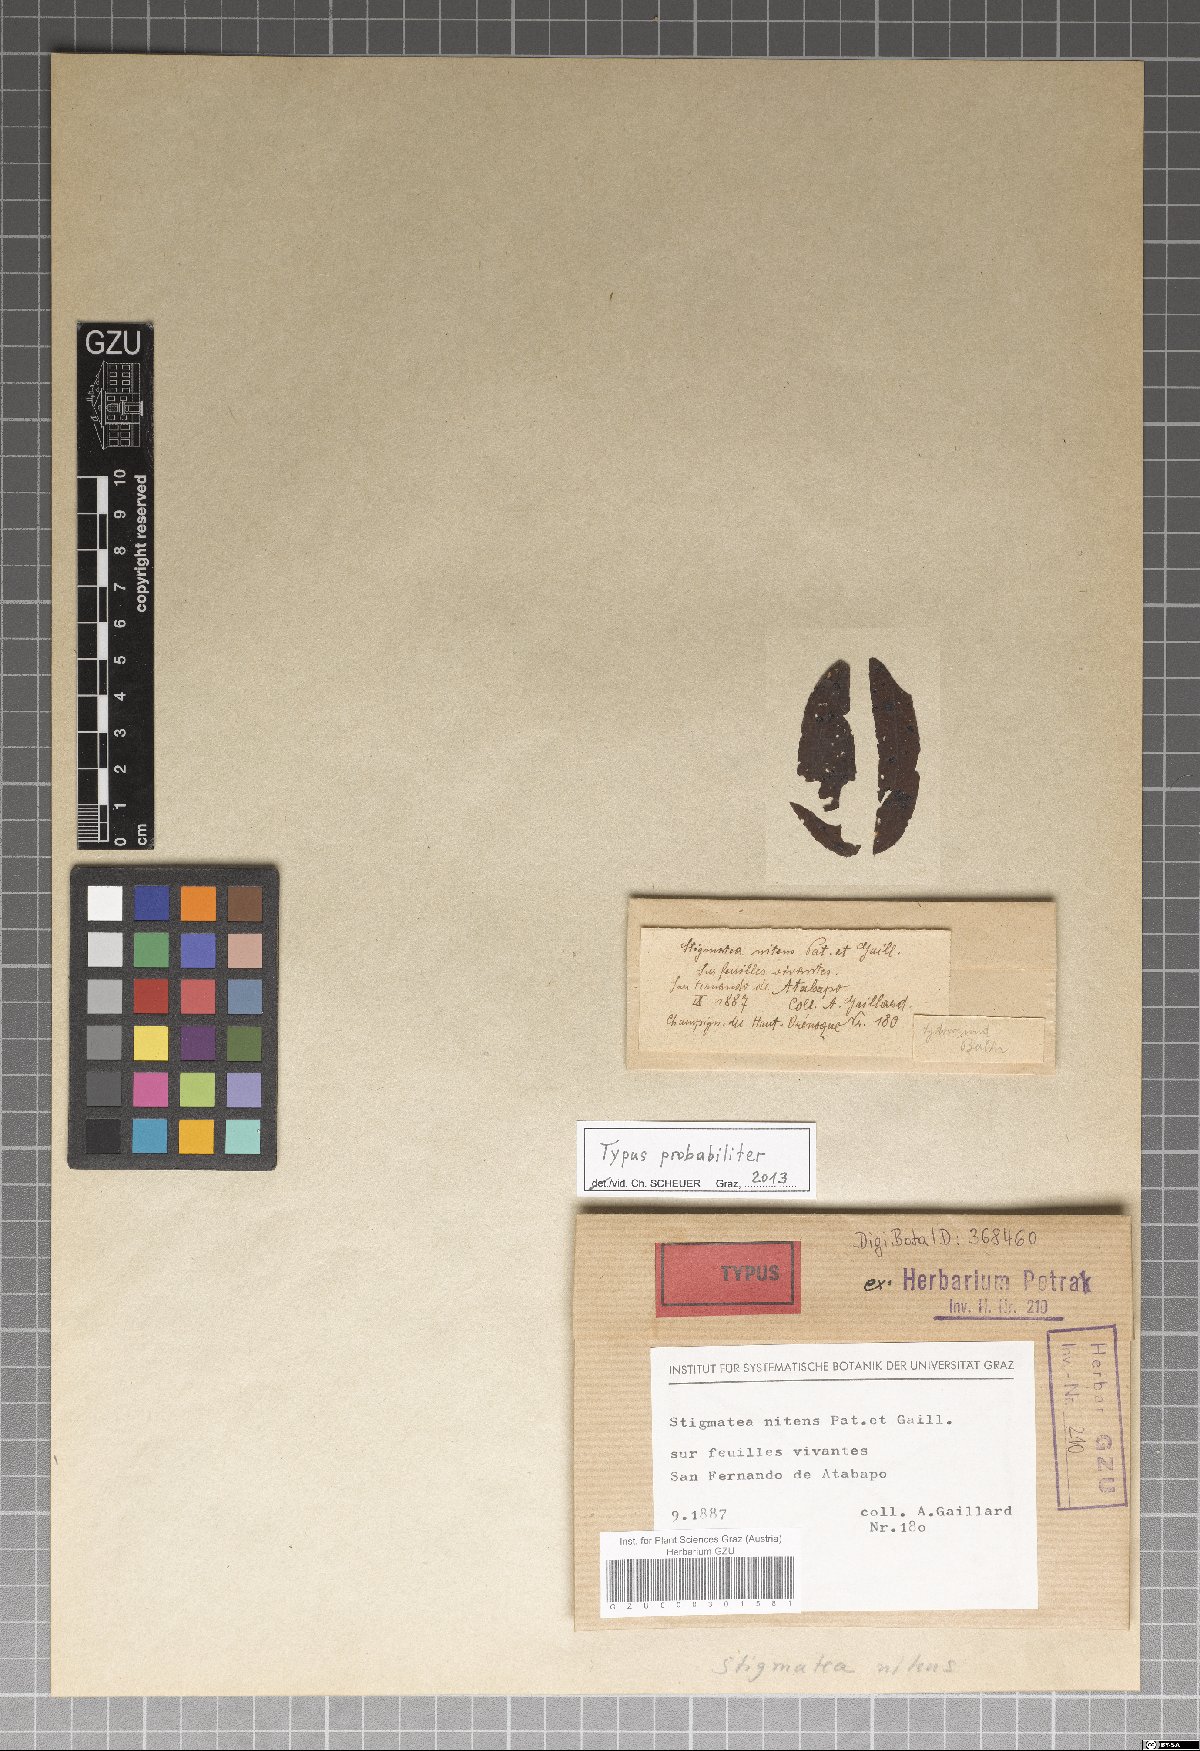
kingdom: Fungi
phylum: Ascomycota
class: Dothideomycetes
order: Dothideales
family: Dothideaceae
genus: Vestergrenia
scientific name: Vestergrenia multipunctata
